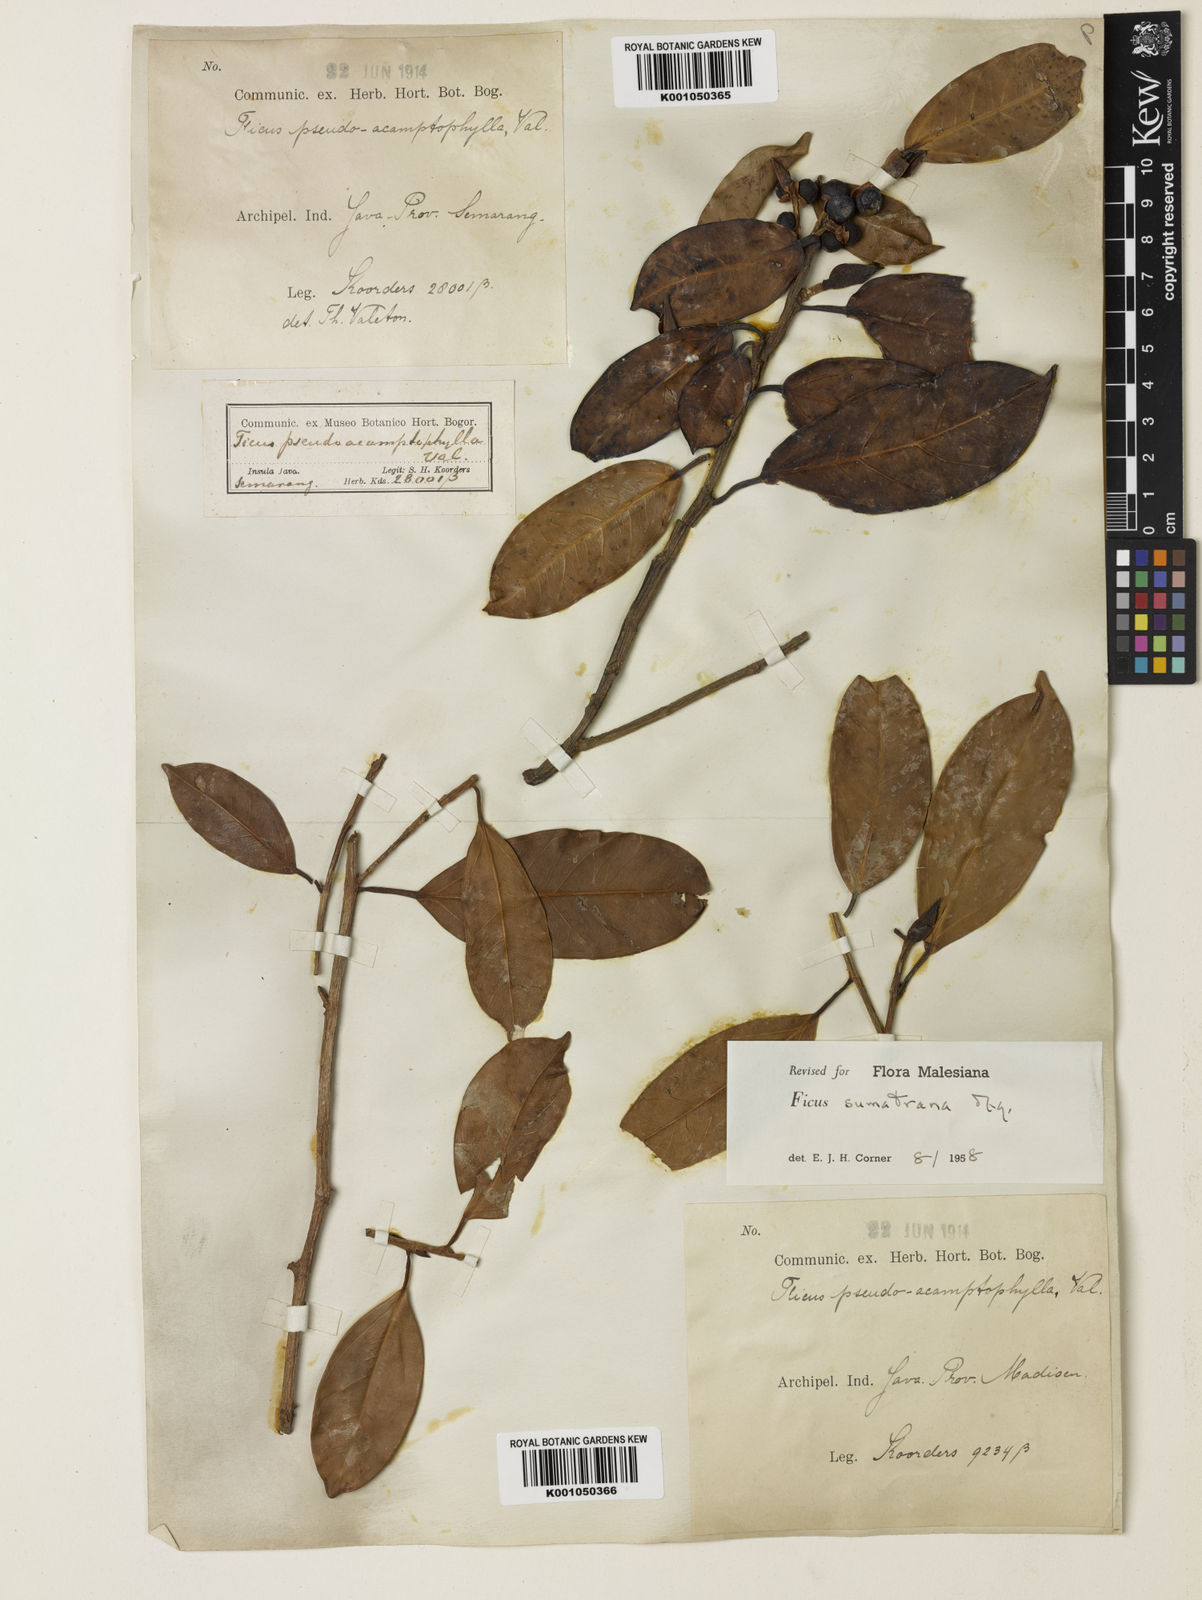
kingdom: Plantae
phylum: Tracheophyta
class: Magnoliopsida
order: Rosales
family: Moraceae
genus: Ficus
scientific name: Ficus sumatrana
